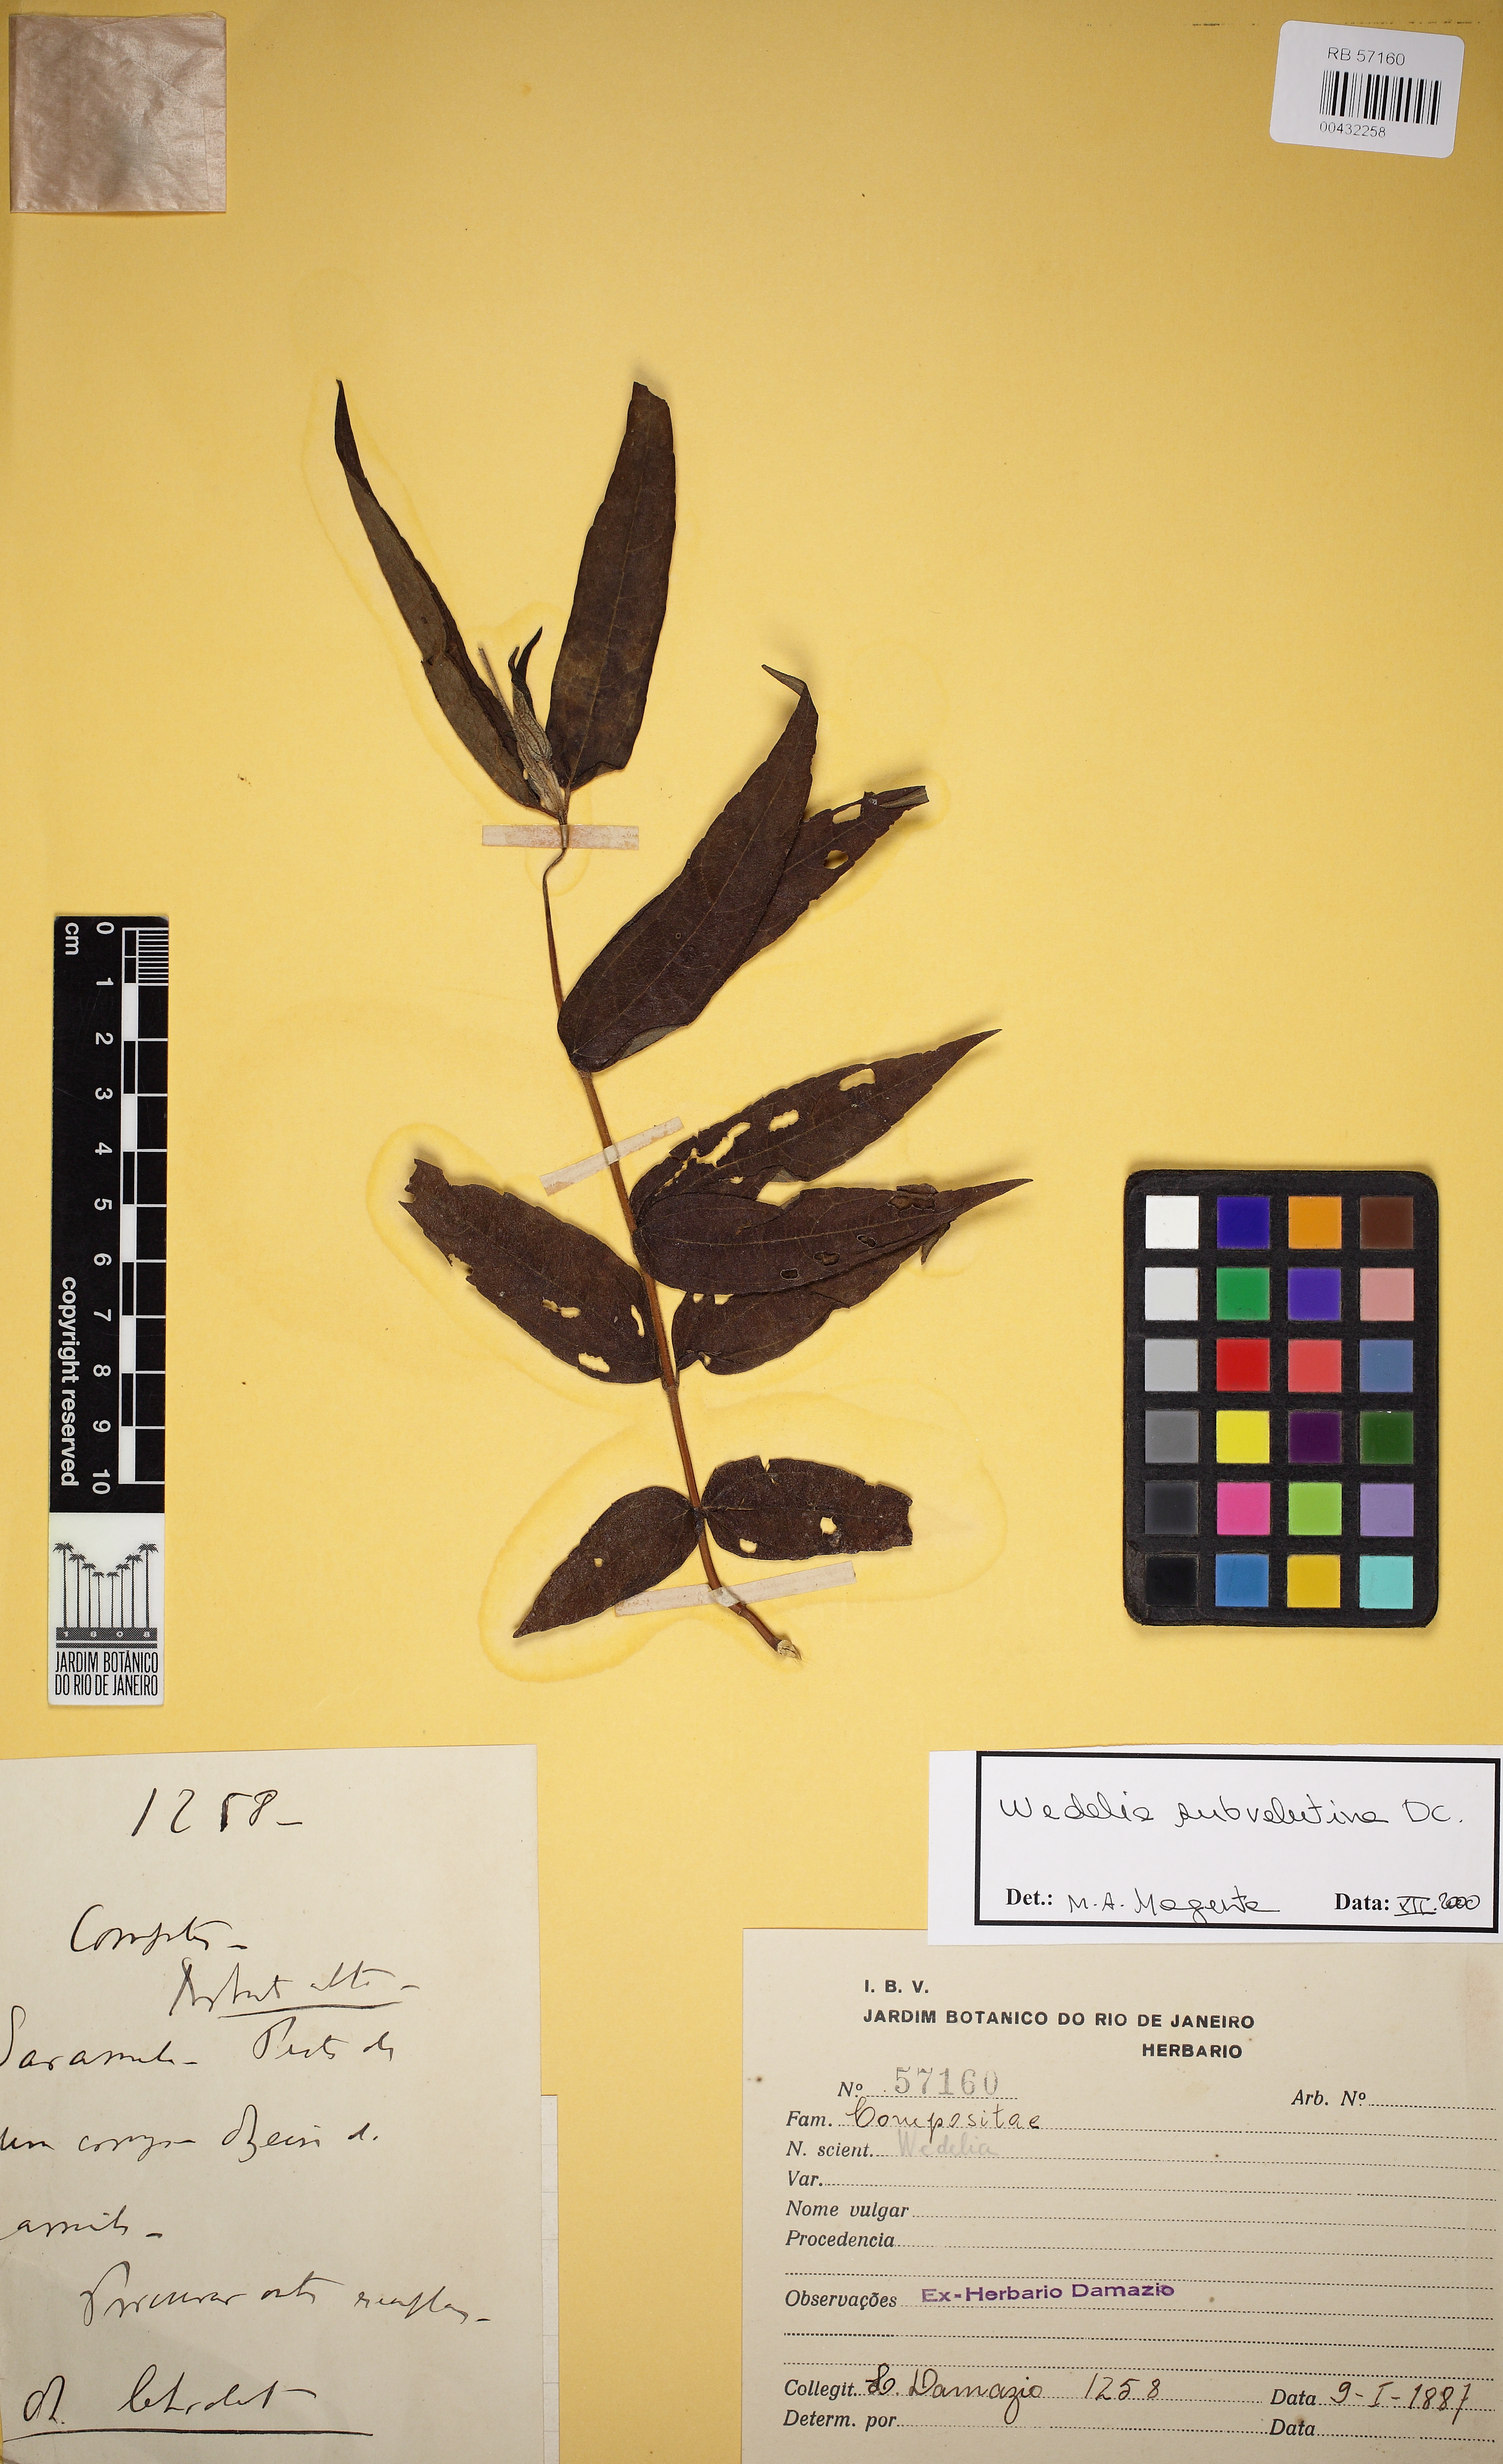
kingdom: Plantae
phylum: Tracheophyta
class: Magnoliopsida
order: Asterales
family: Asteraceae
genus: Wedelia
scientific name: Wedelia subvelutina
